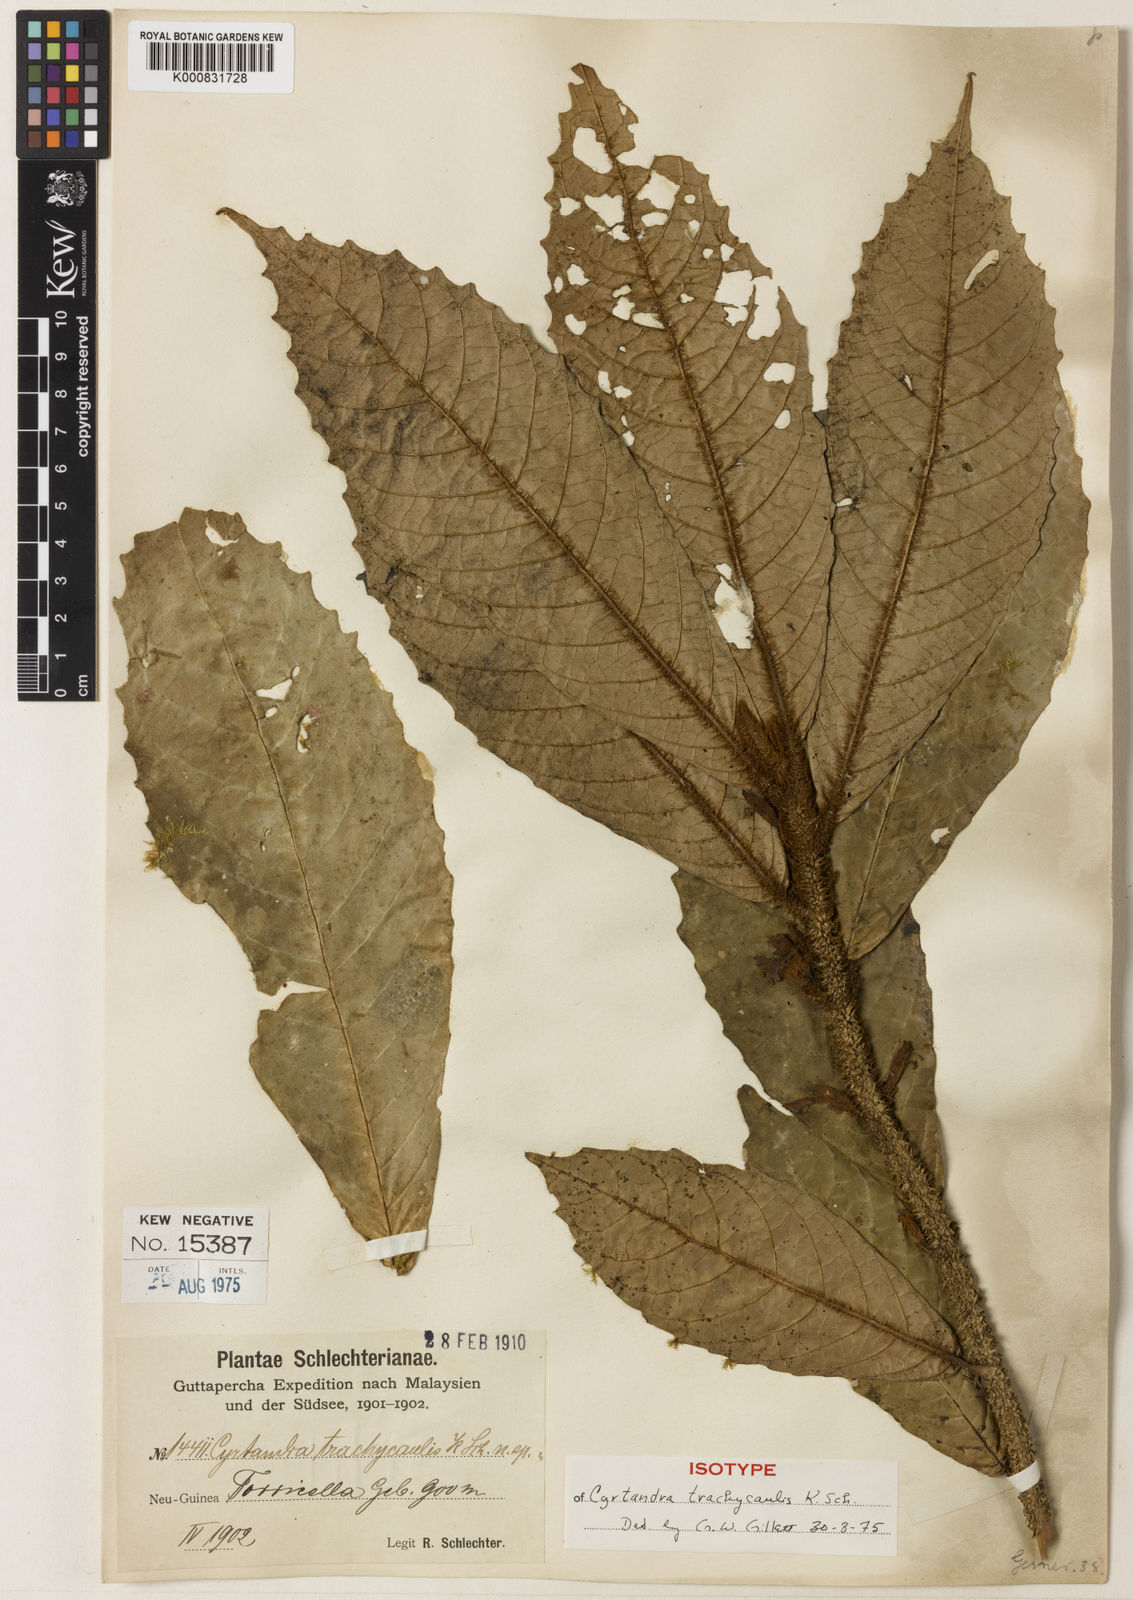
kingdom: Plantae
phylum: Tracheophyta
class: Magnoliopsida
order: Lamiales
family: Gesneriaceae
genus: Cyrtandra
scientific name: Cyrtandra trachycaulis
